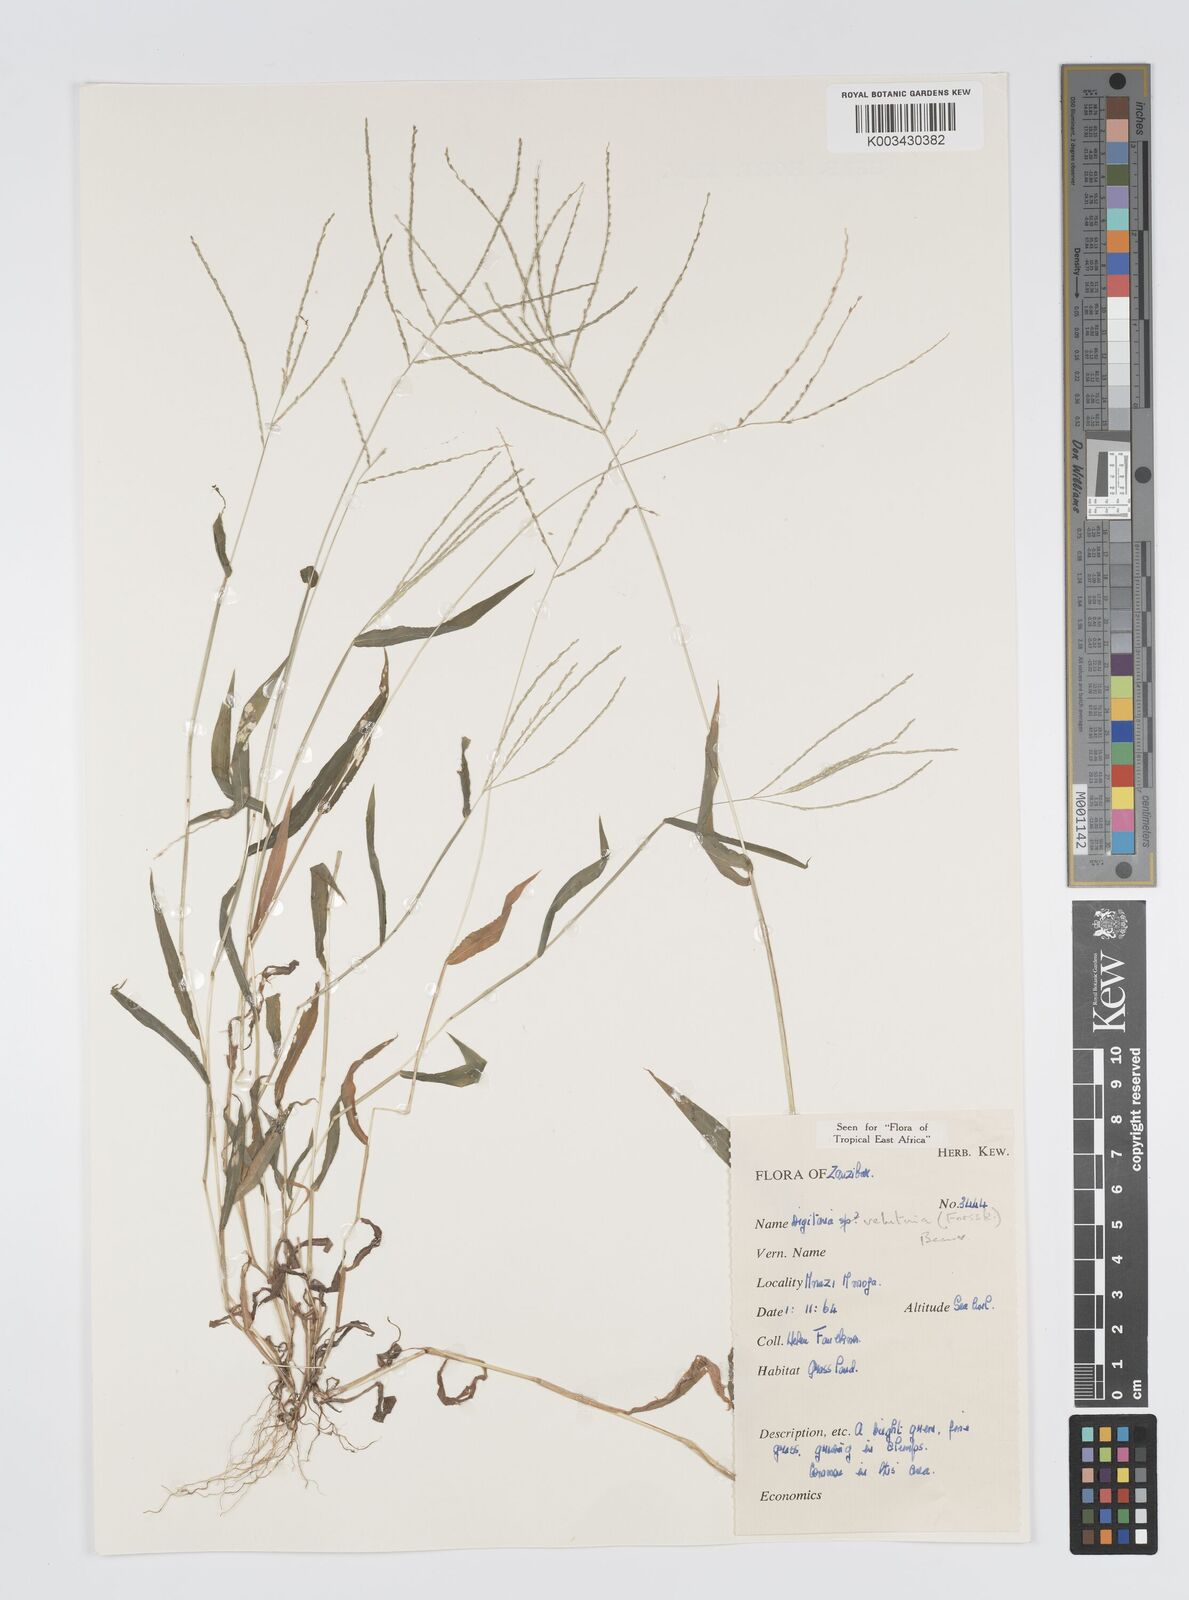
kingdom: Plantae
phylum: Tracheophyta
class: Liliopsida
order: Poales
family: Poaceae
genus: Digitaria
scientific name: Digitaria velutina
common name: Long-plume finger grass
